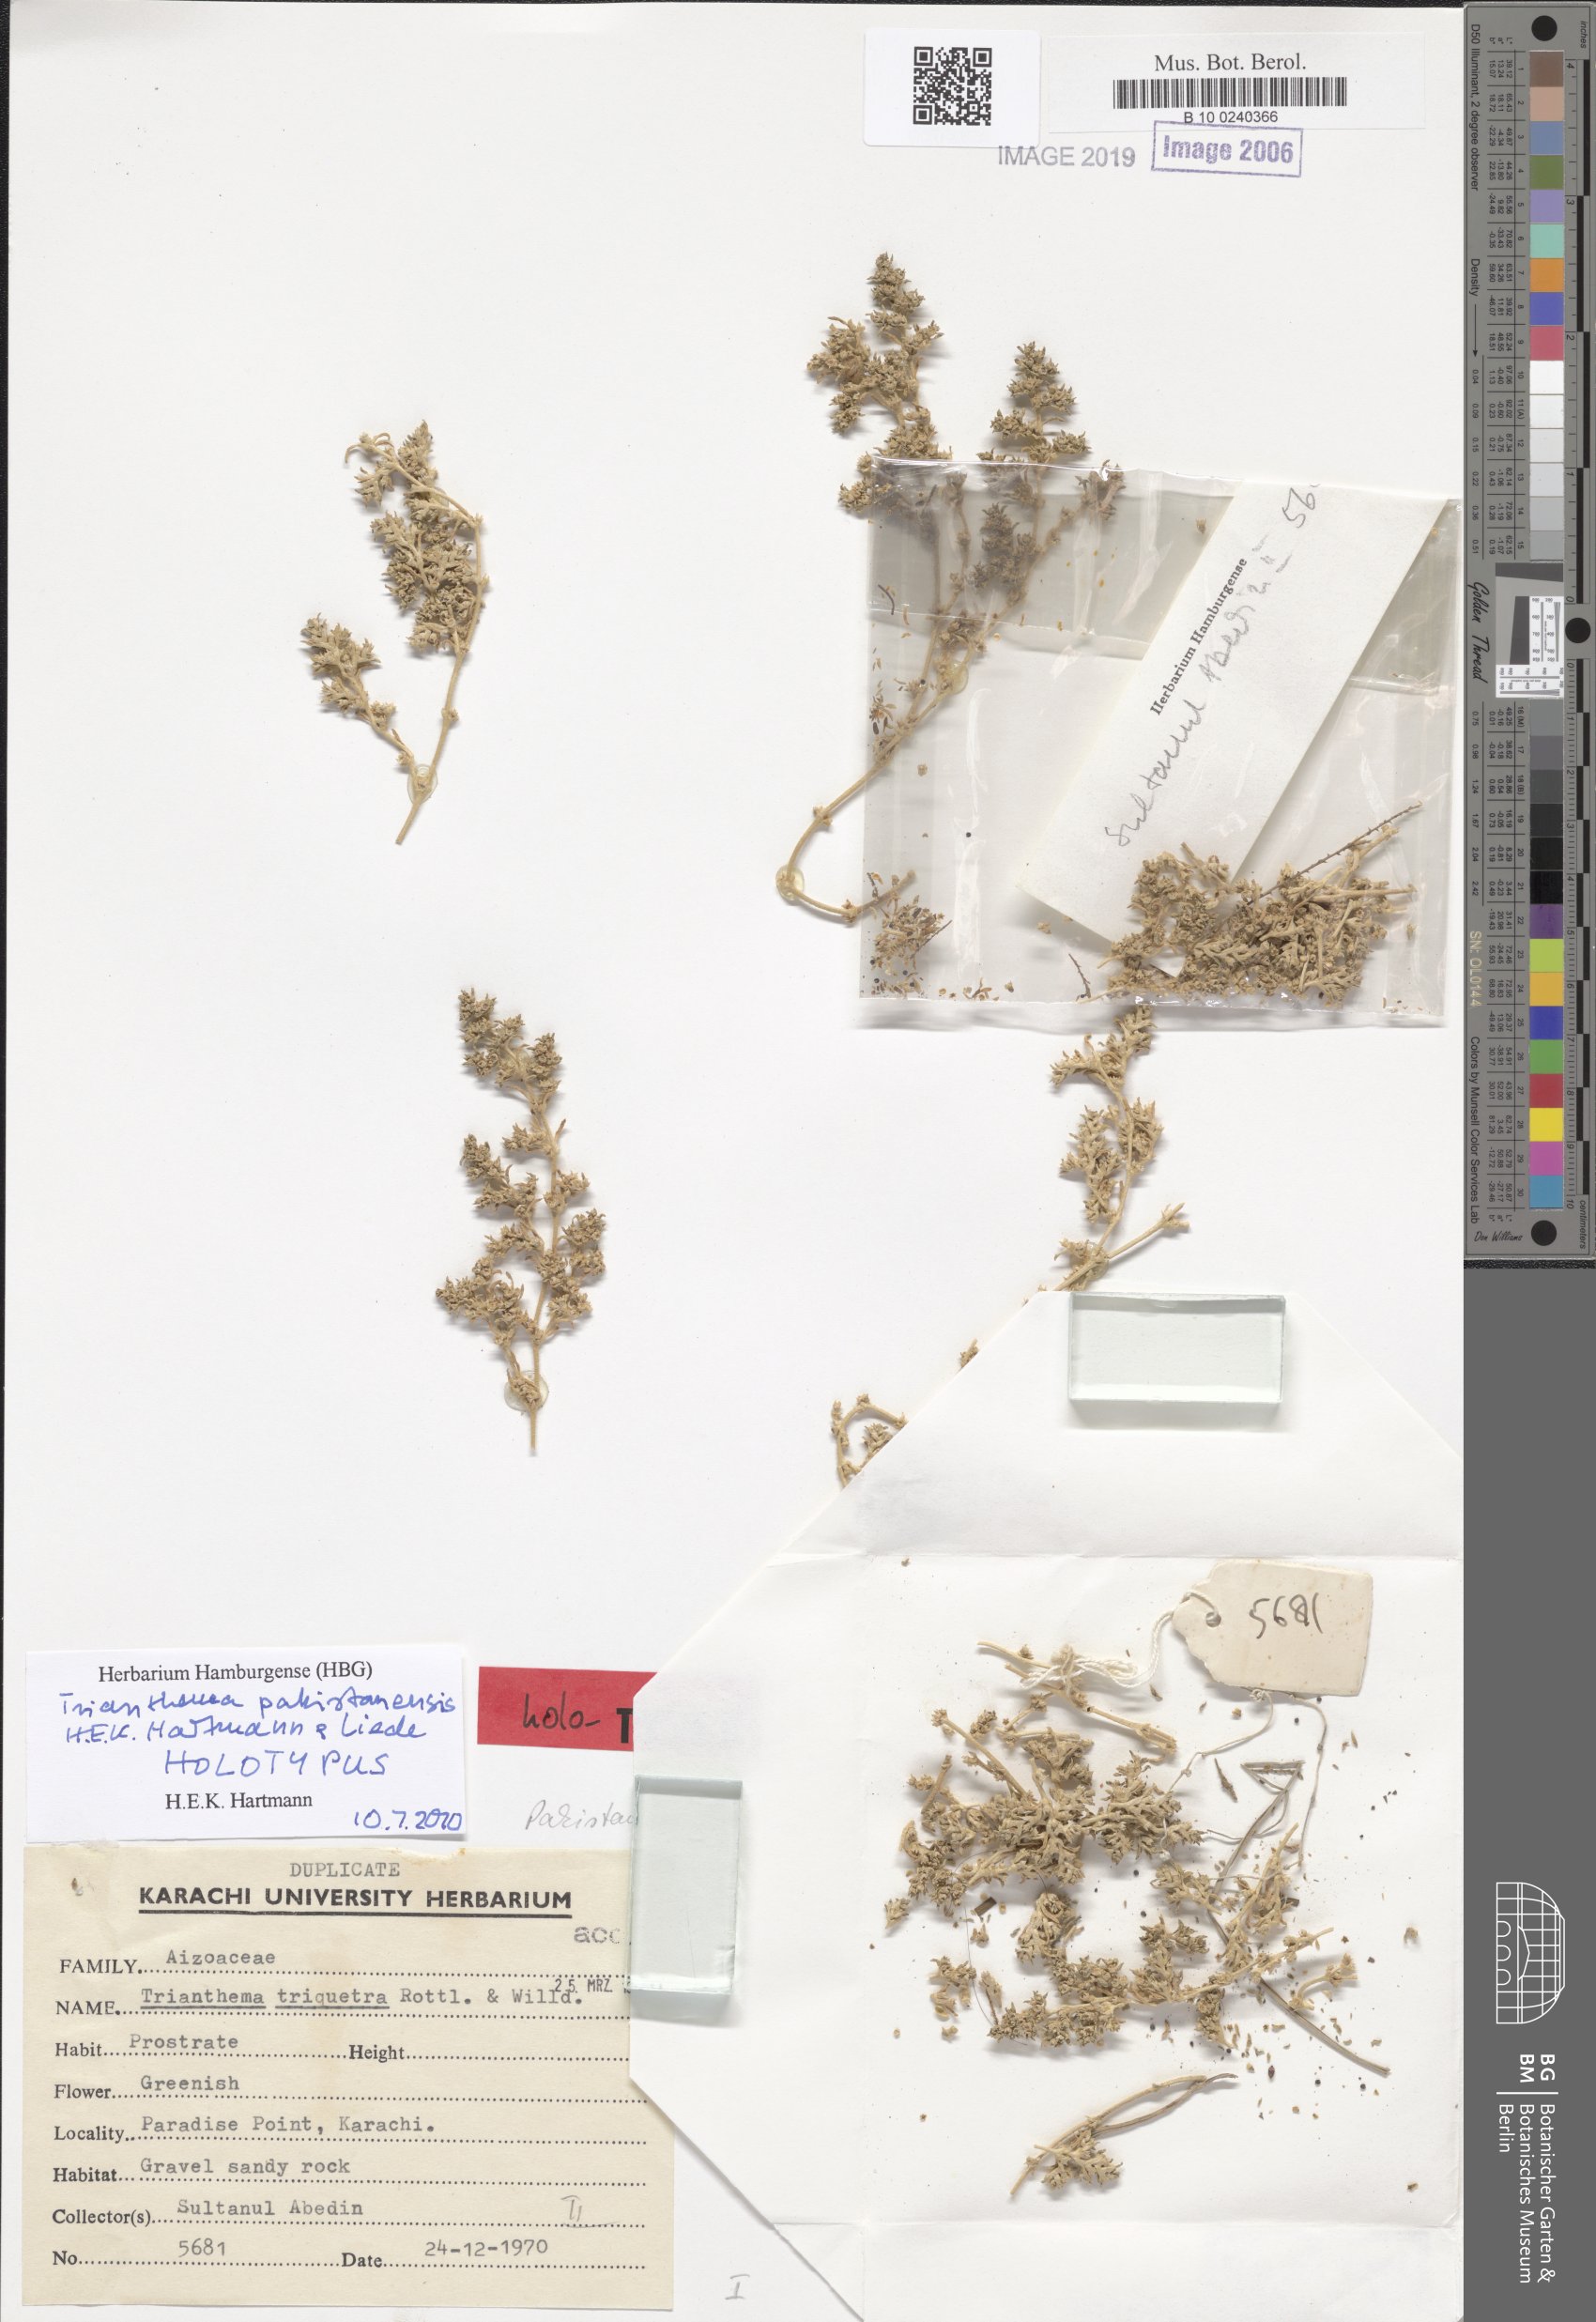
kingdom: Plantae
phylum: Tracheophyta
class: Magnoliopsida
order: Caryophyllales
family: Aizoaceae
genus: Trianthema
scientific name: Trianthema pakistanensis
